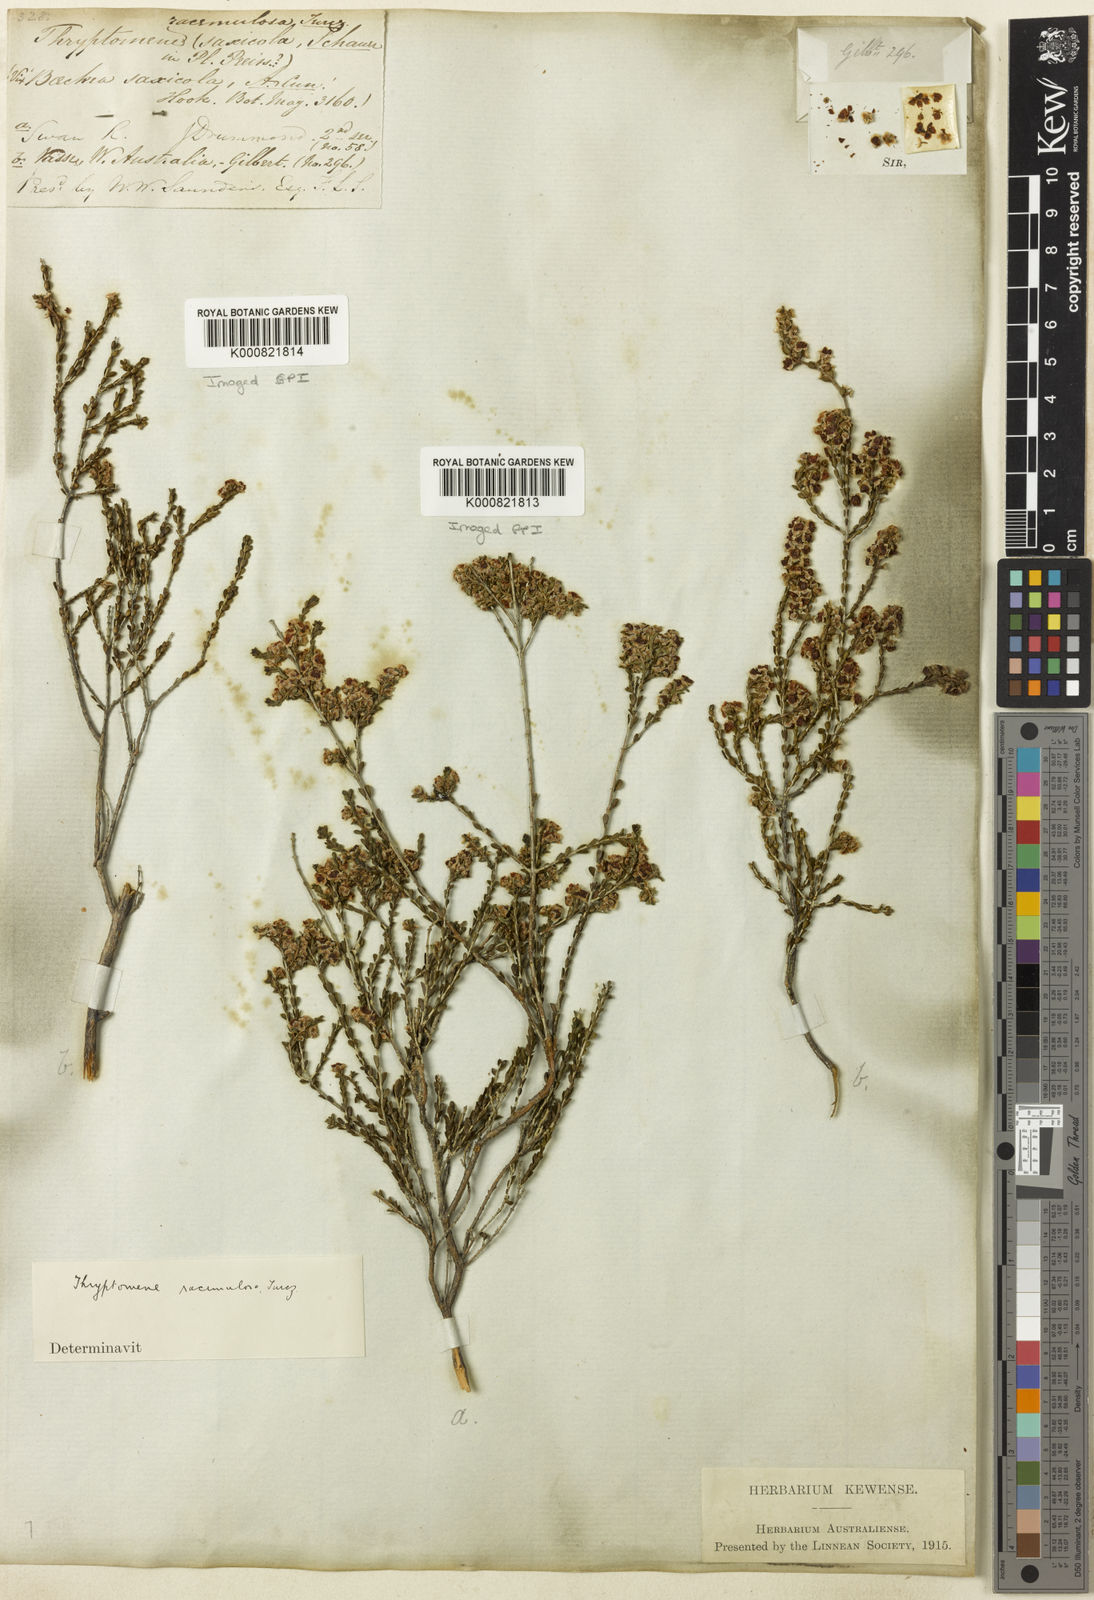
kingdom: Plantae
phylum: Tracheophyta
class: Magnoliopsida
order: Myrtales
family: Myrtaceae
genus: Thryptomene
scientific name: Thryptomene racemulosa
